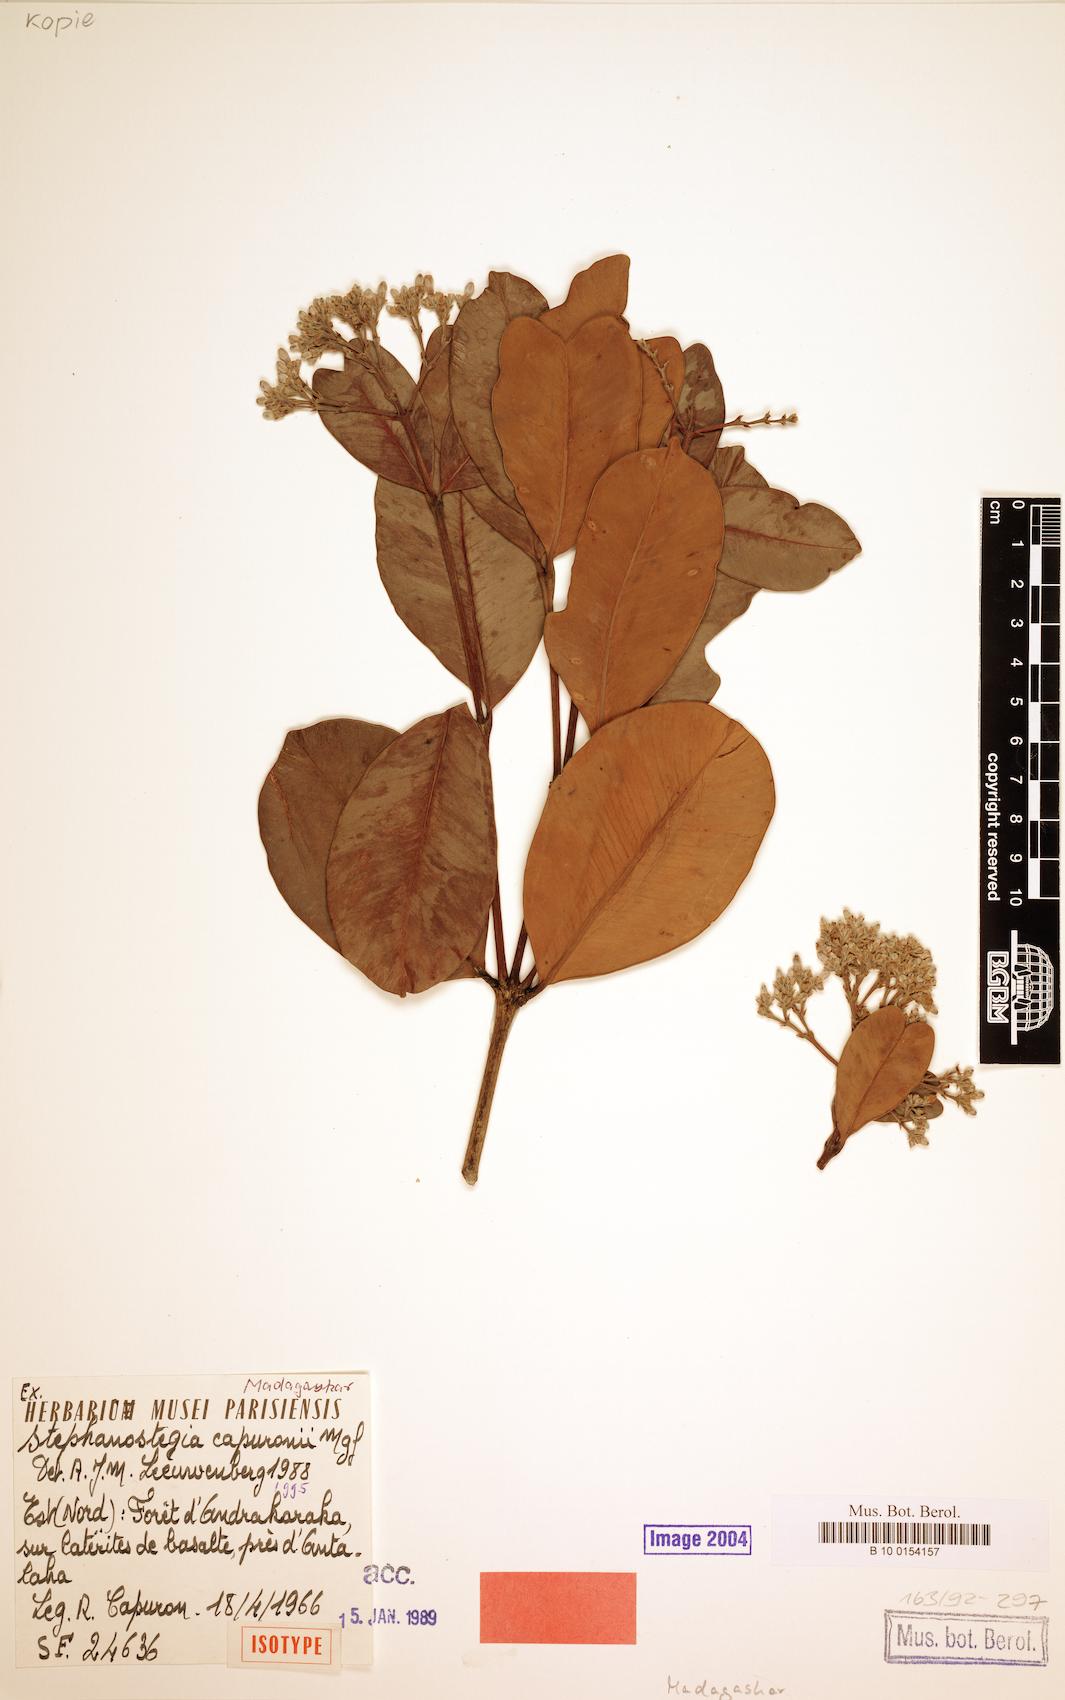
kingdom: Plantae
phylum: Tracheophyta
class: Magnoliopsida
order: Gentianales
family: Apocynaceae
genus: Stephanostegia
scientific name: Stephanostegia capuronii
